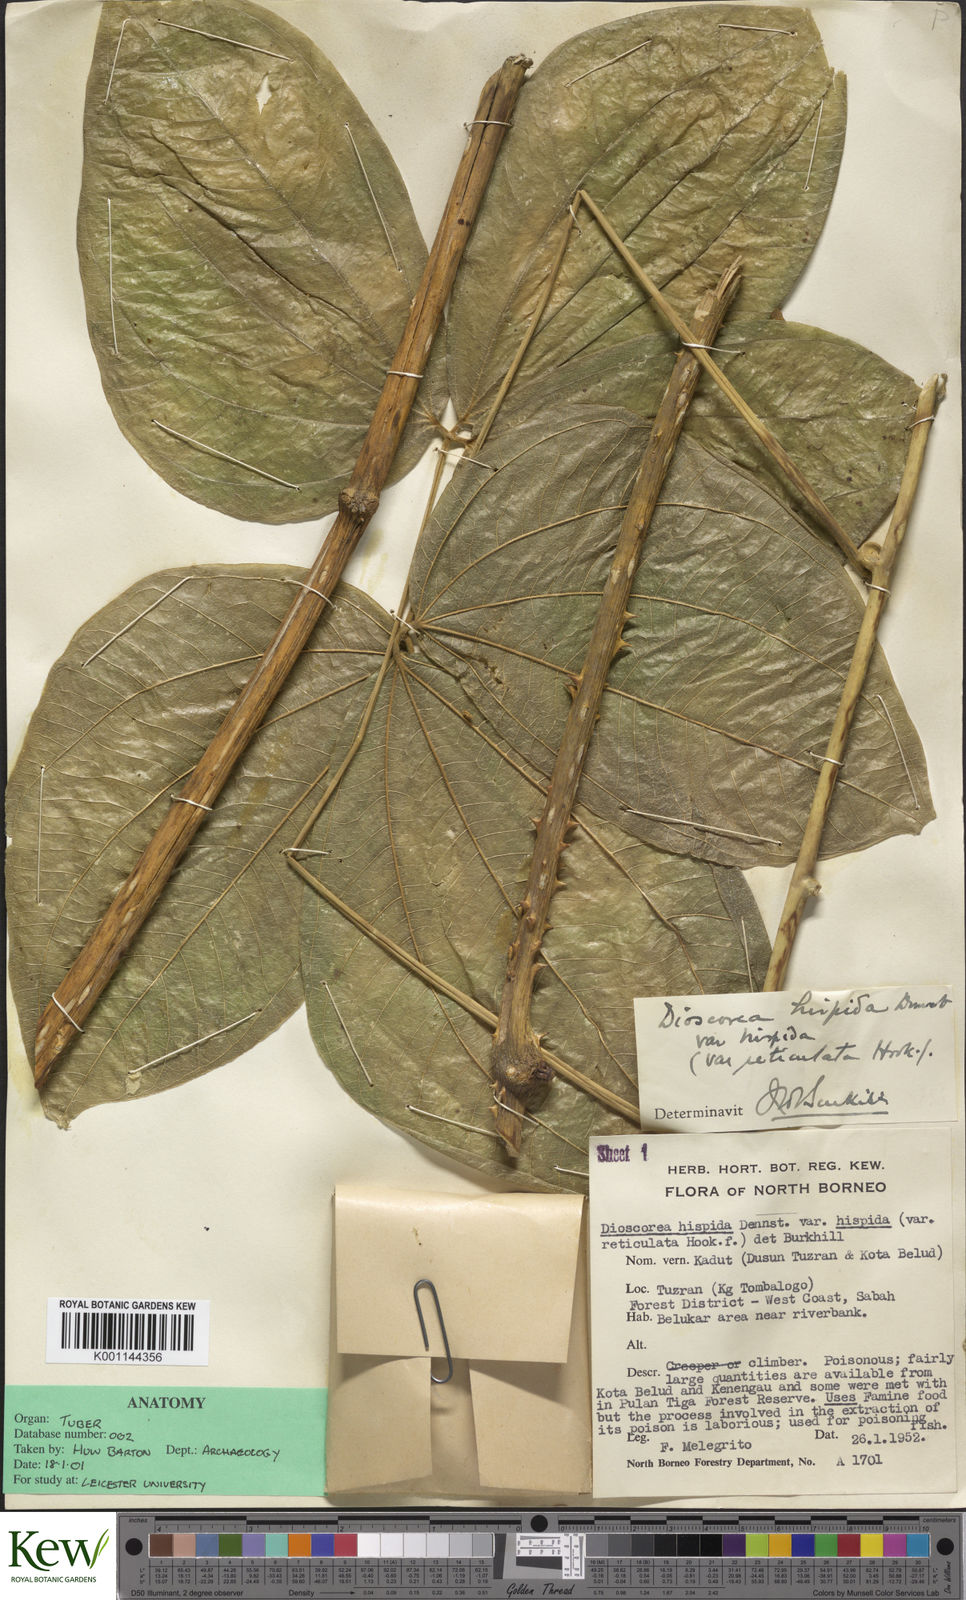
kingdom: Plantae
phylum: Tracheophyta
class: Liliopsida
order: Dioscoreales
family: Dioscoreaceae
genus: Dioscorea
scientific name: Dioscorea hispida
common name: Asiatic bitter yam
